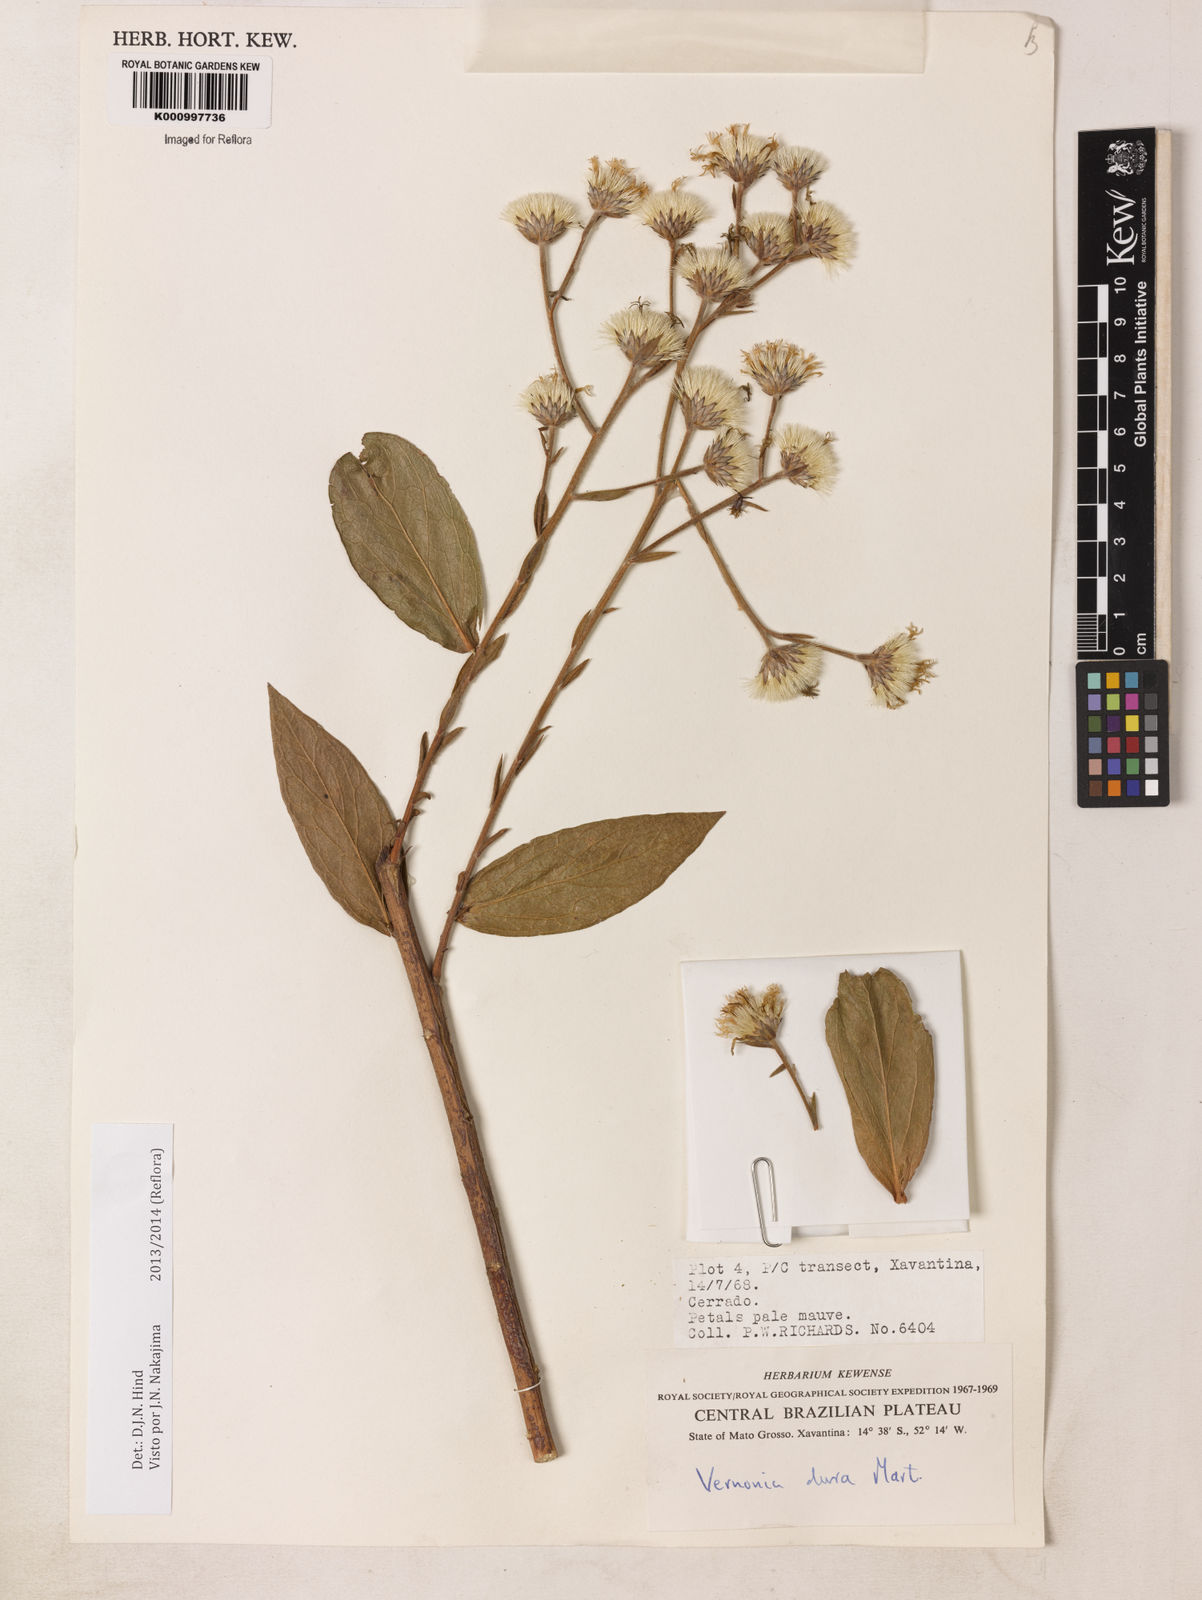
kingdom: Plantae
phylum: Tracheophyta
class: Magnoliopsida
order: Asterales
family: Asteraceae
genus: Lessingianthus
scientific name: Lessingianthus durus
